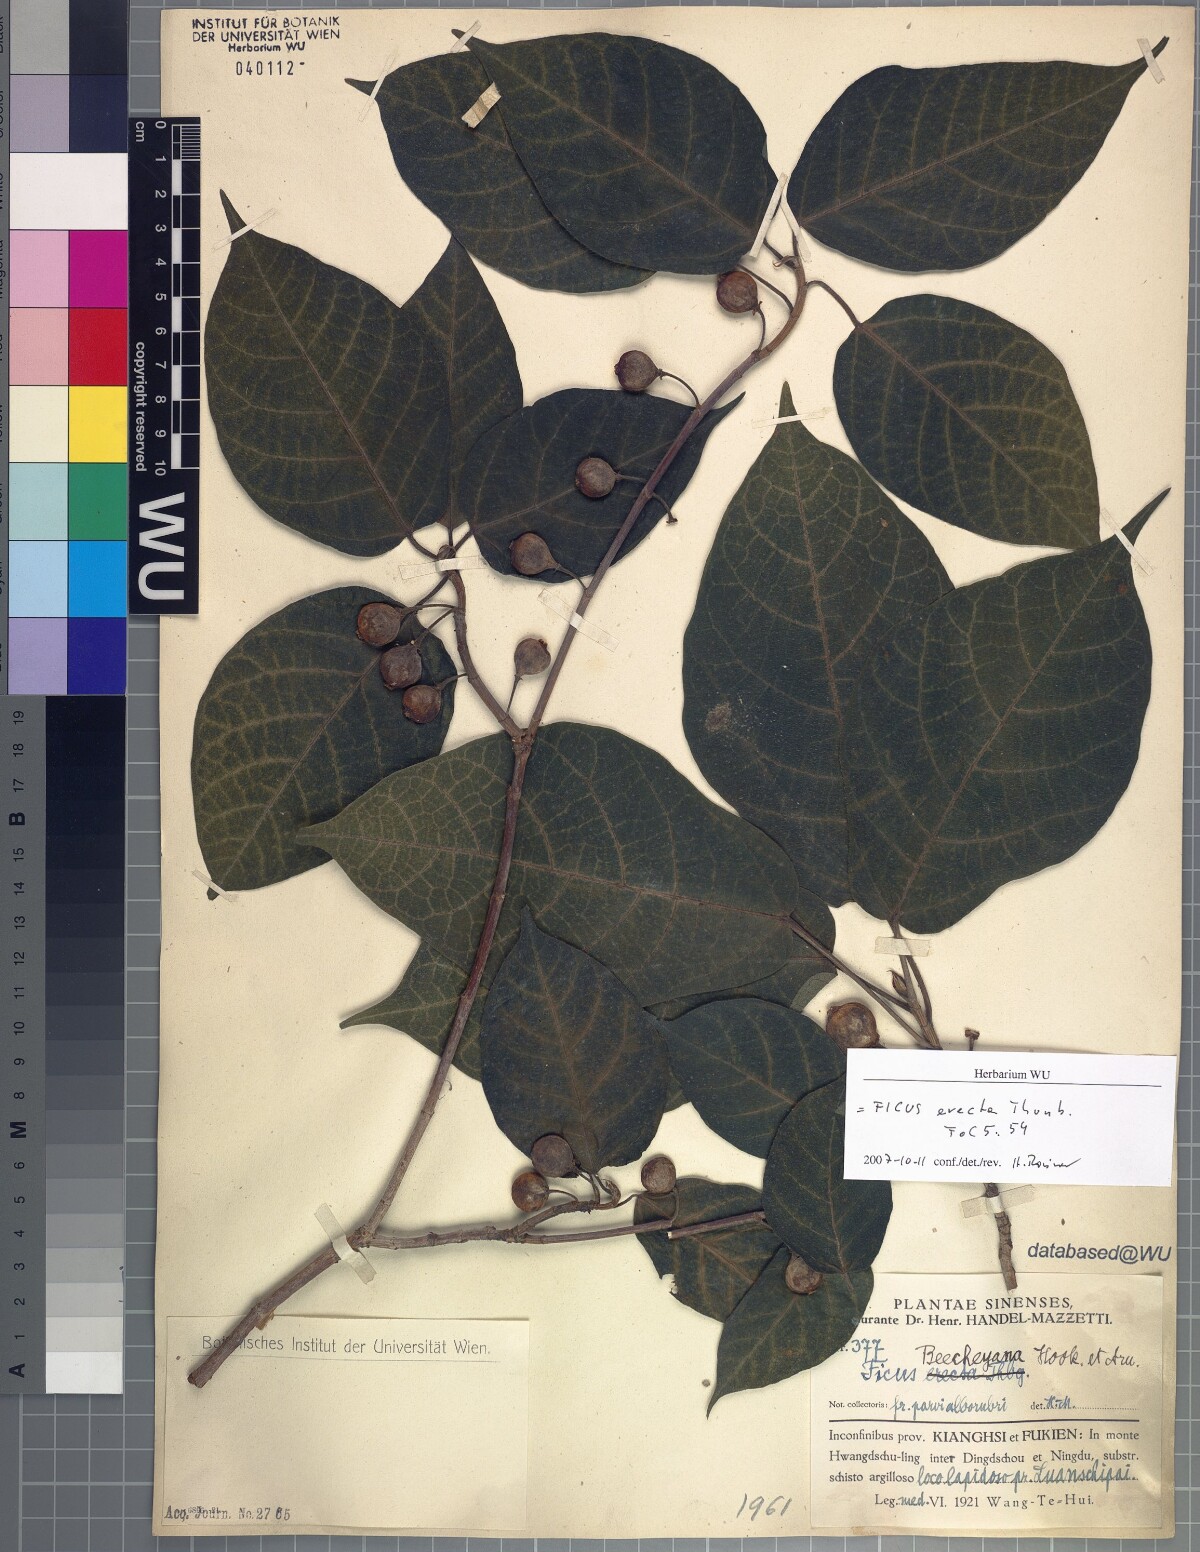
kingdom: Plantae
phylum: Tracheophyta
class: Magnoliopsida
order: Rosales
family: Moraceae
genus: Ficus
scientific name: Ficus erecta
